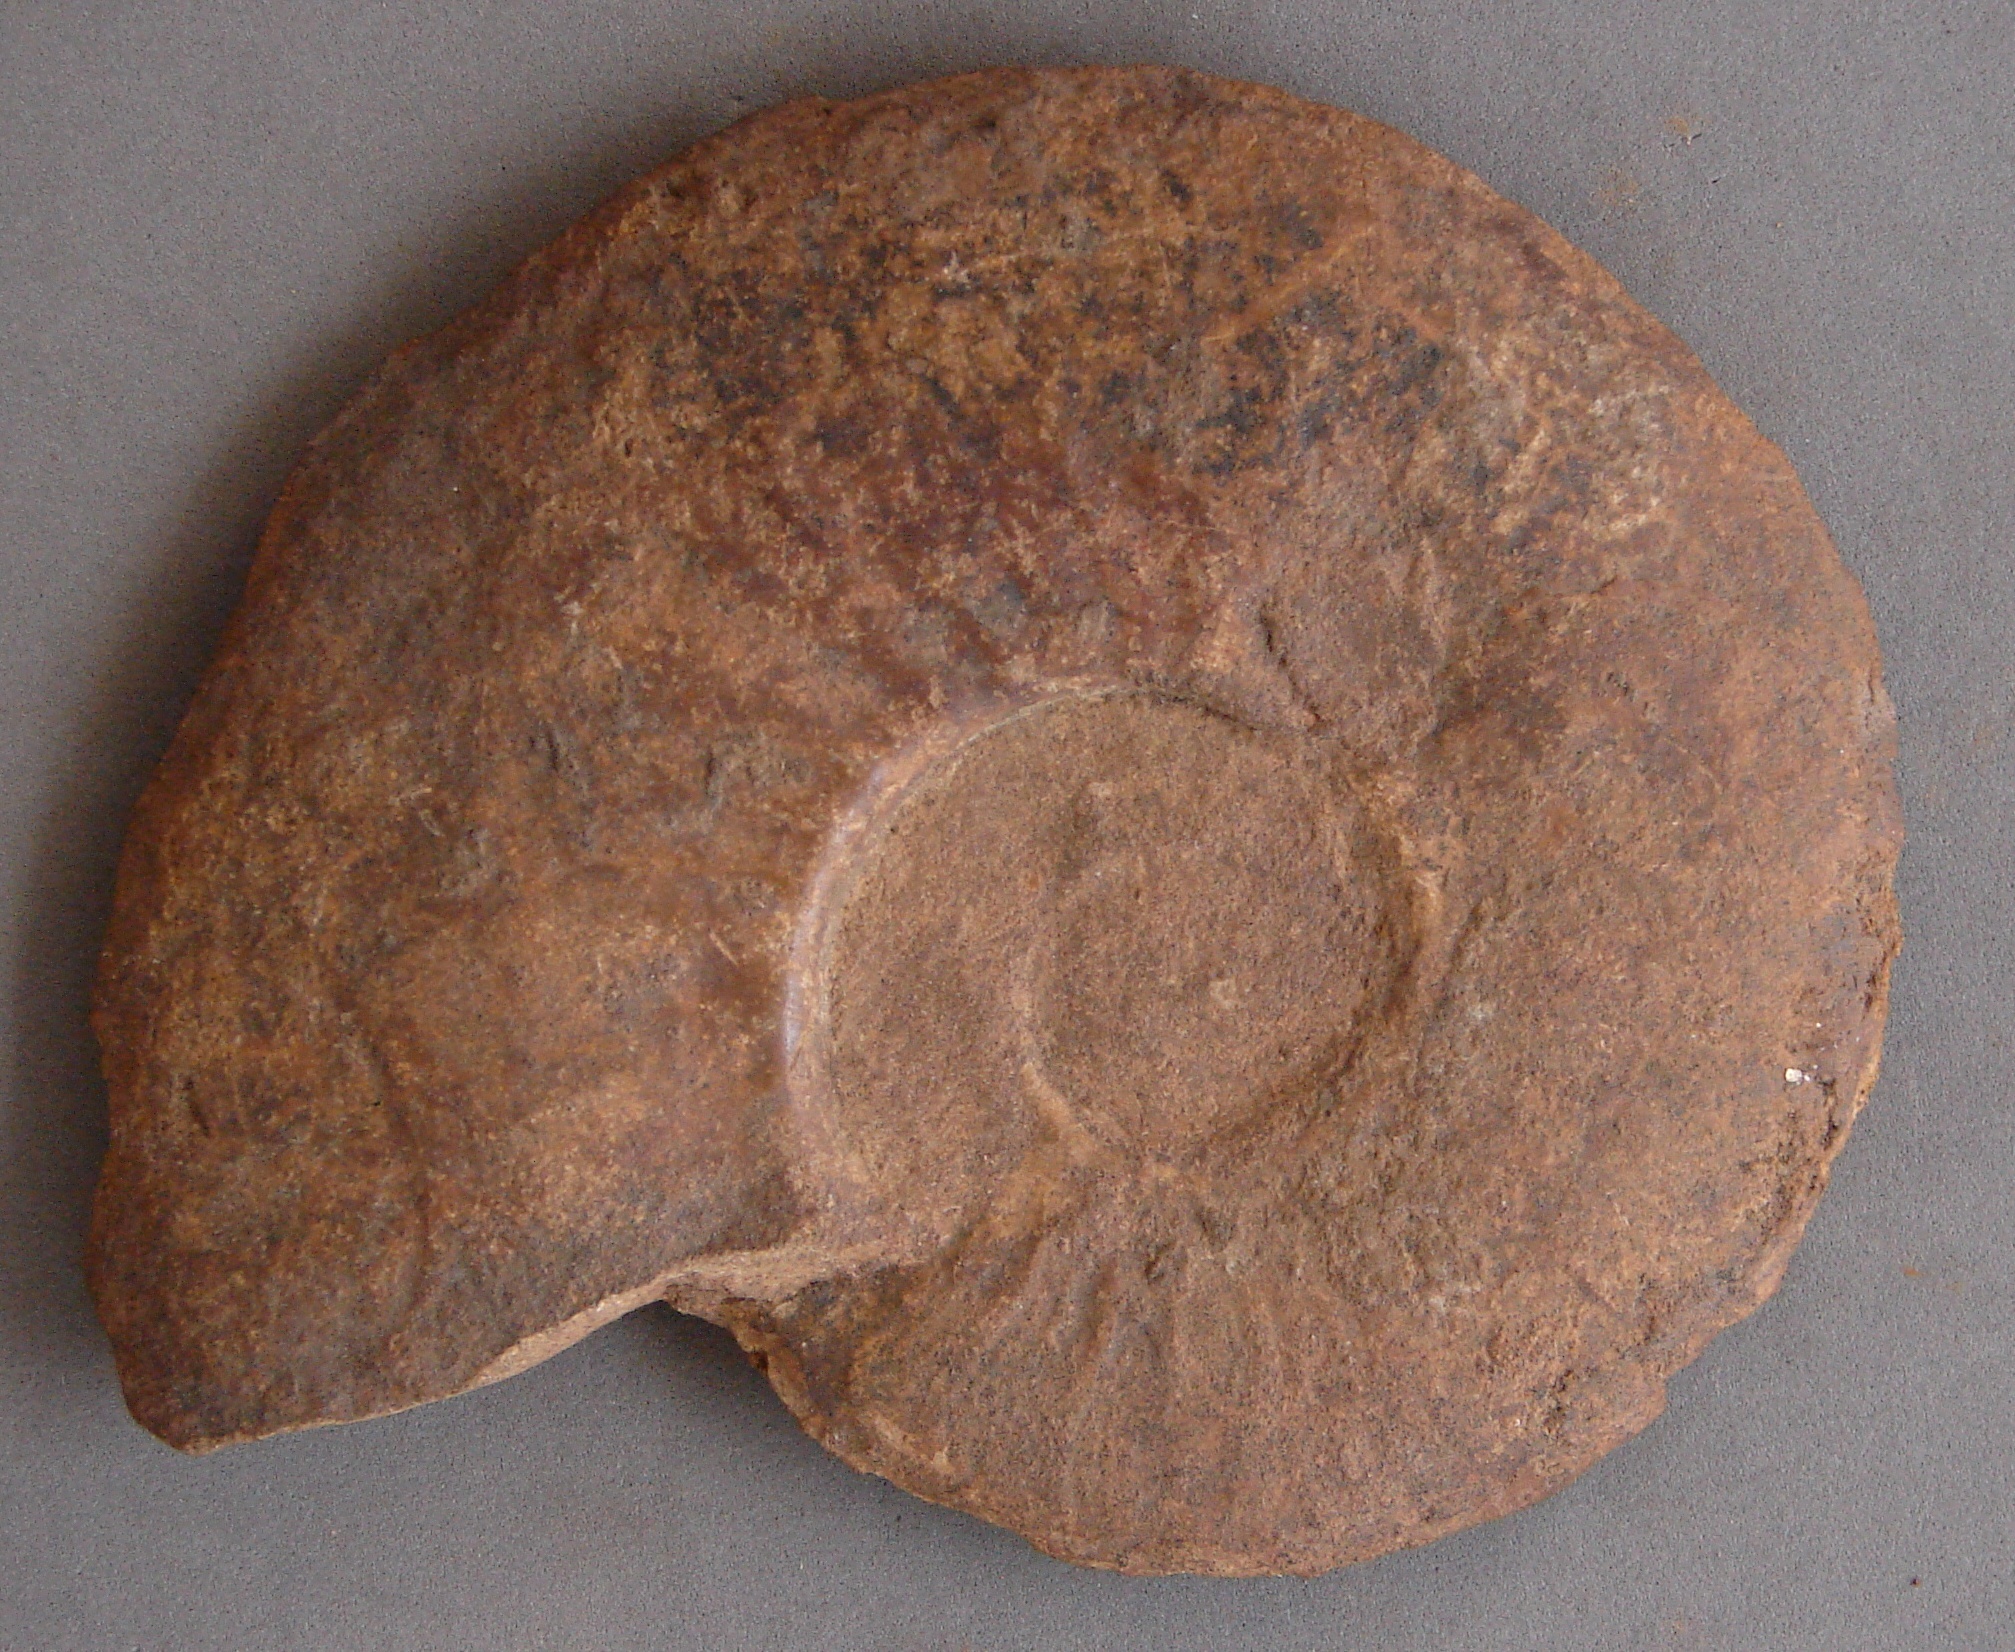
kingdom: Animalia
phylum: Mollusca
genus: Walkericeras
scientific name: Walkericeras
